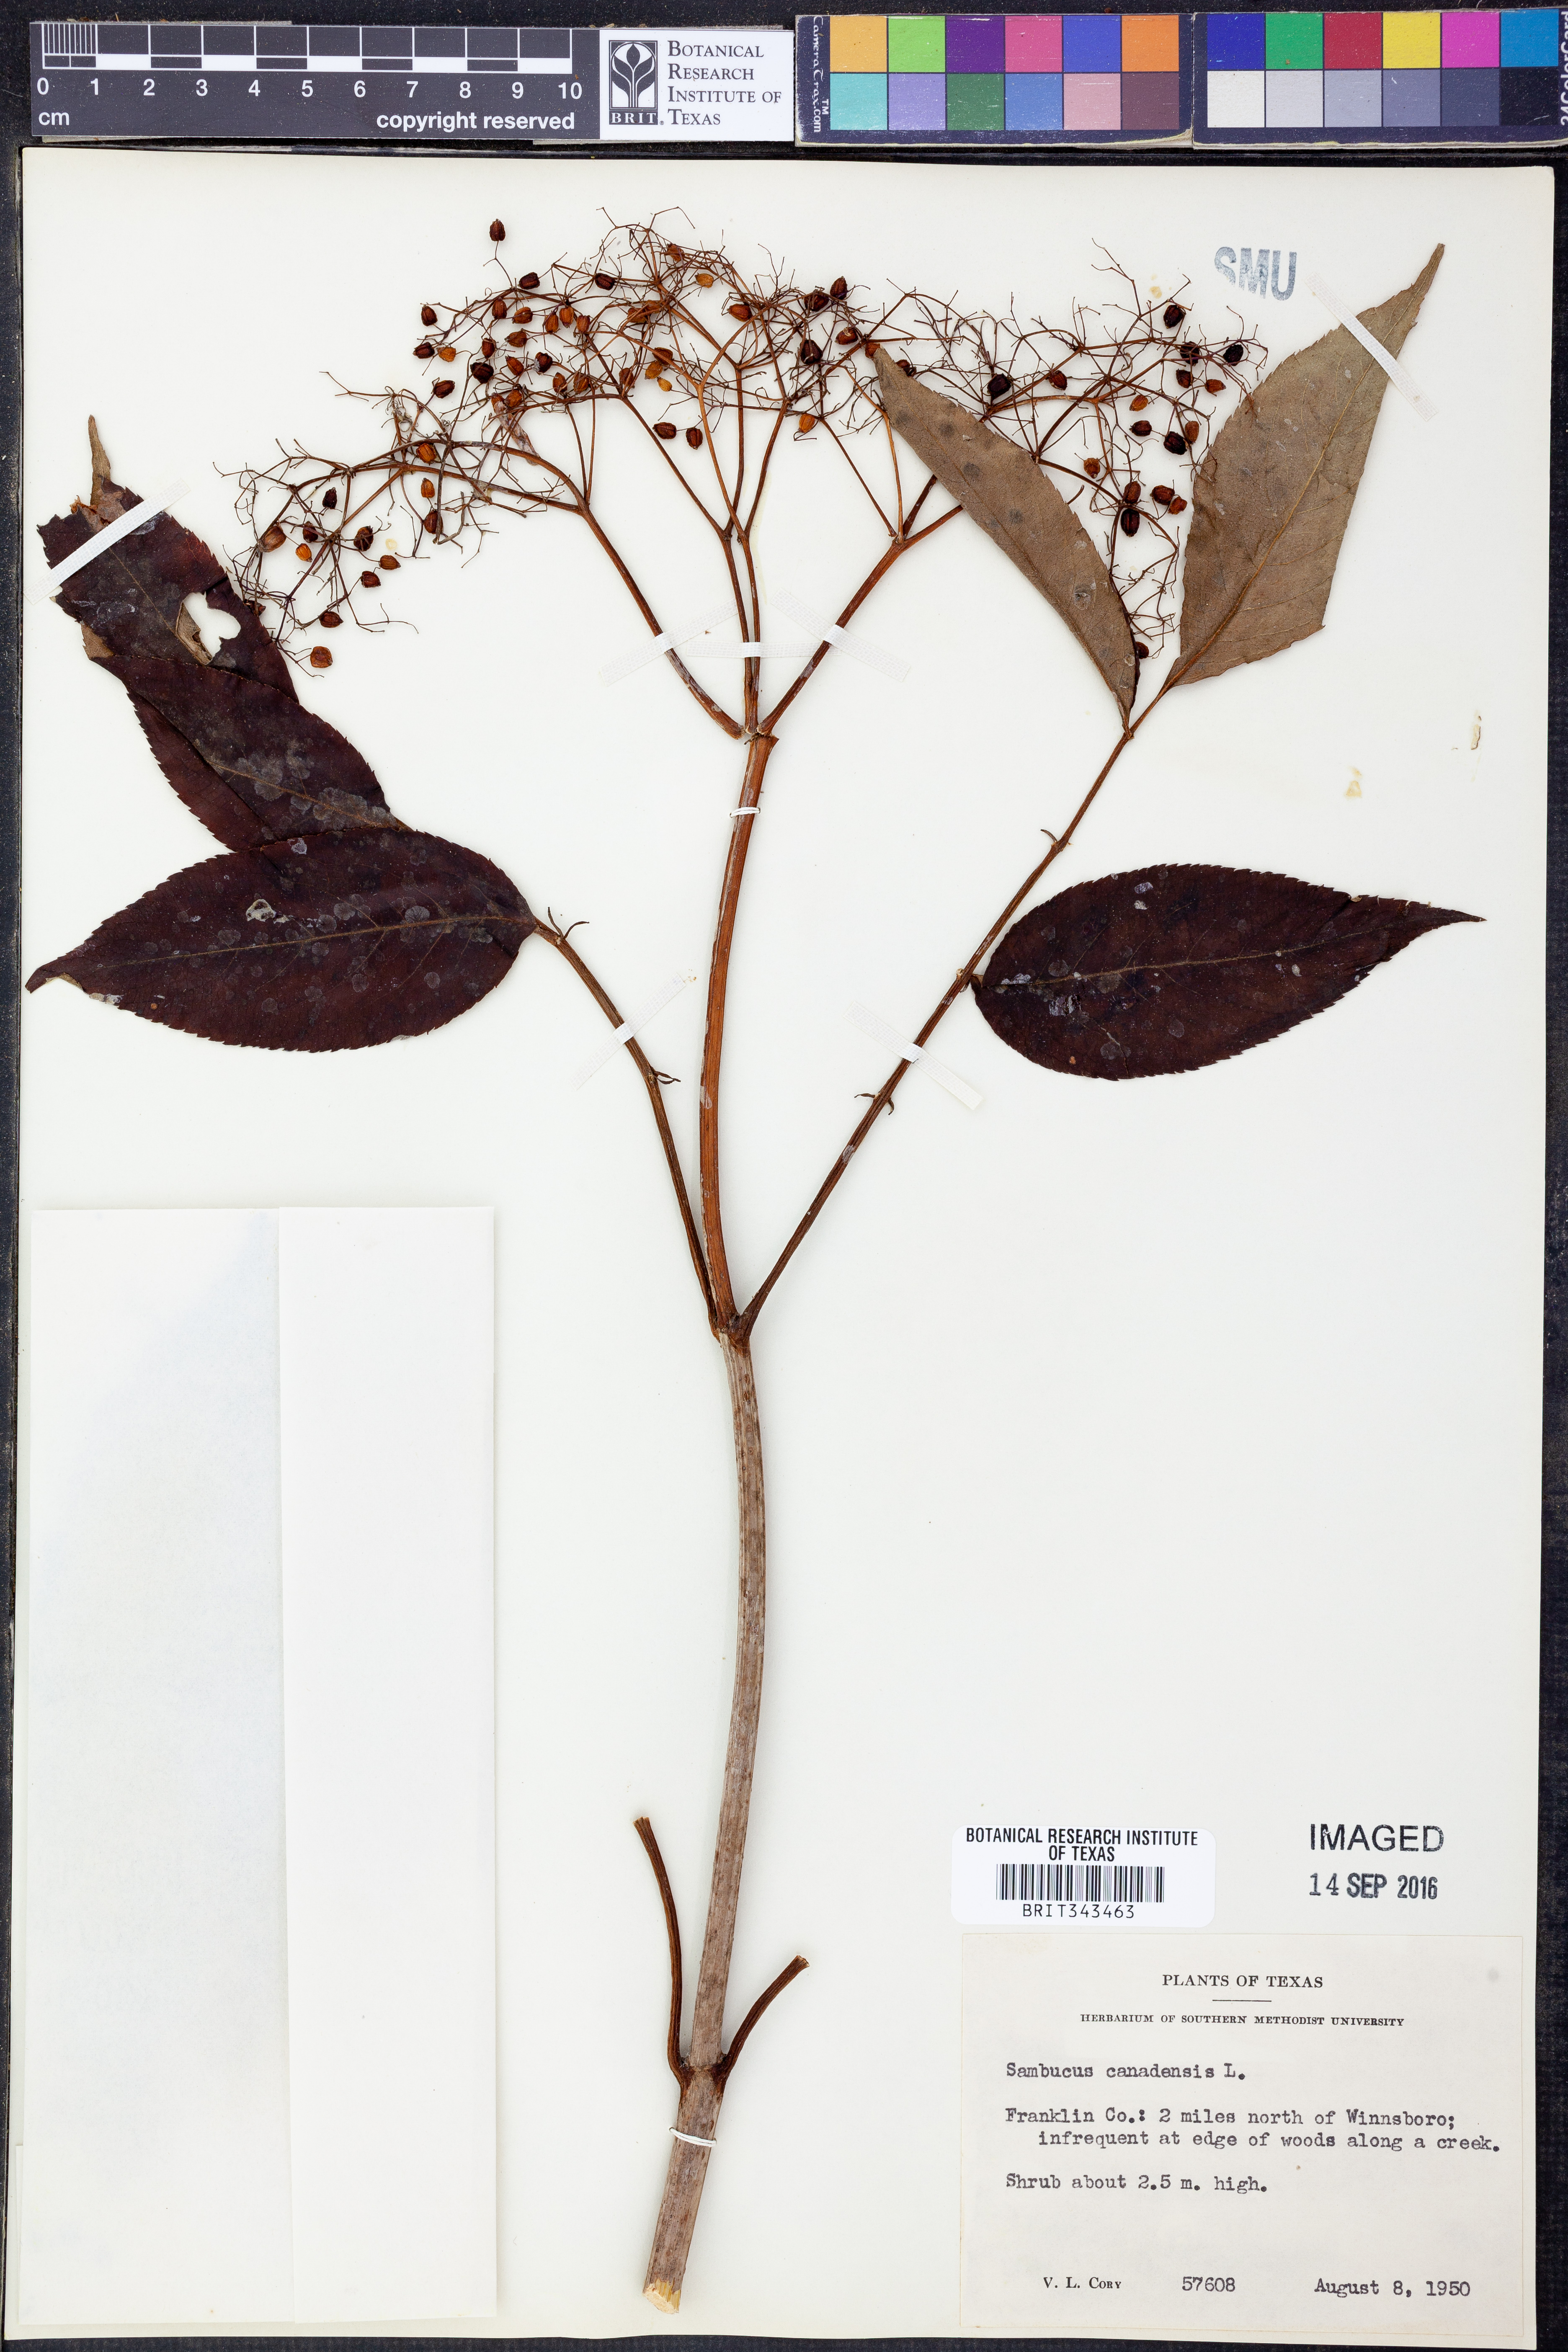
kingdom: Plantae
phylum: Tracheophyta
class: Magnoliopsida
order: Dipsacales
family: Viburnaceae
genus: Sambucus
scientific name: Sambucus canadensis
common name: American elder
